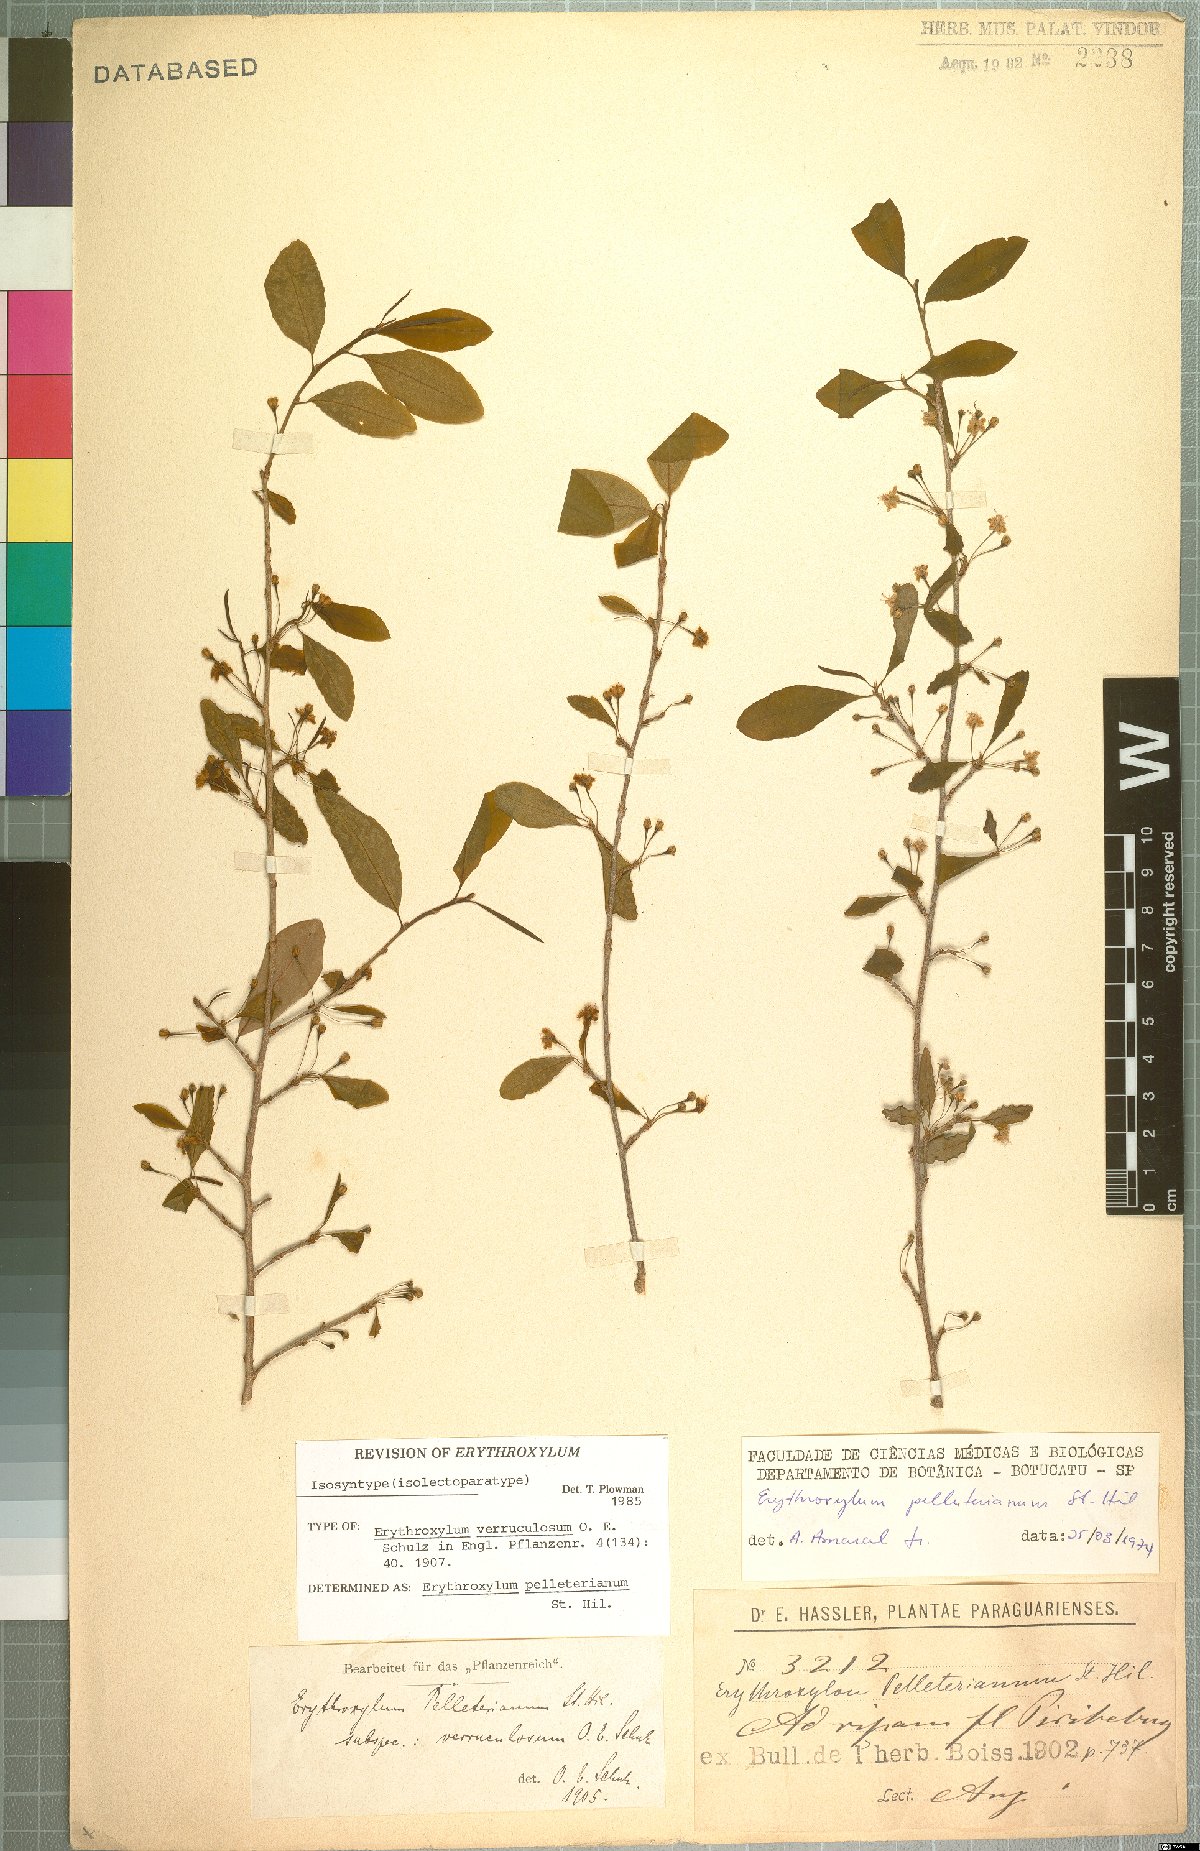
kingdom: Plantae
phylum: Tracheophyta
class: Magnoliopsida
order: Malpighiales
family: Erythroxylaceae
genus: Erythroxylum
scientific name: Erythroxylum pelleterianum
